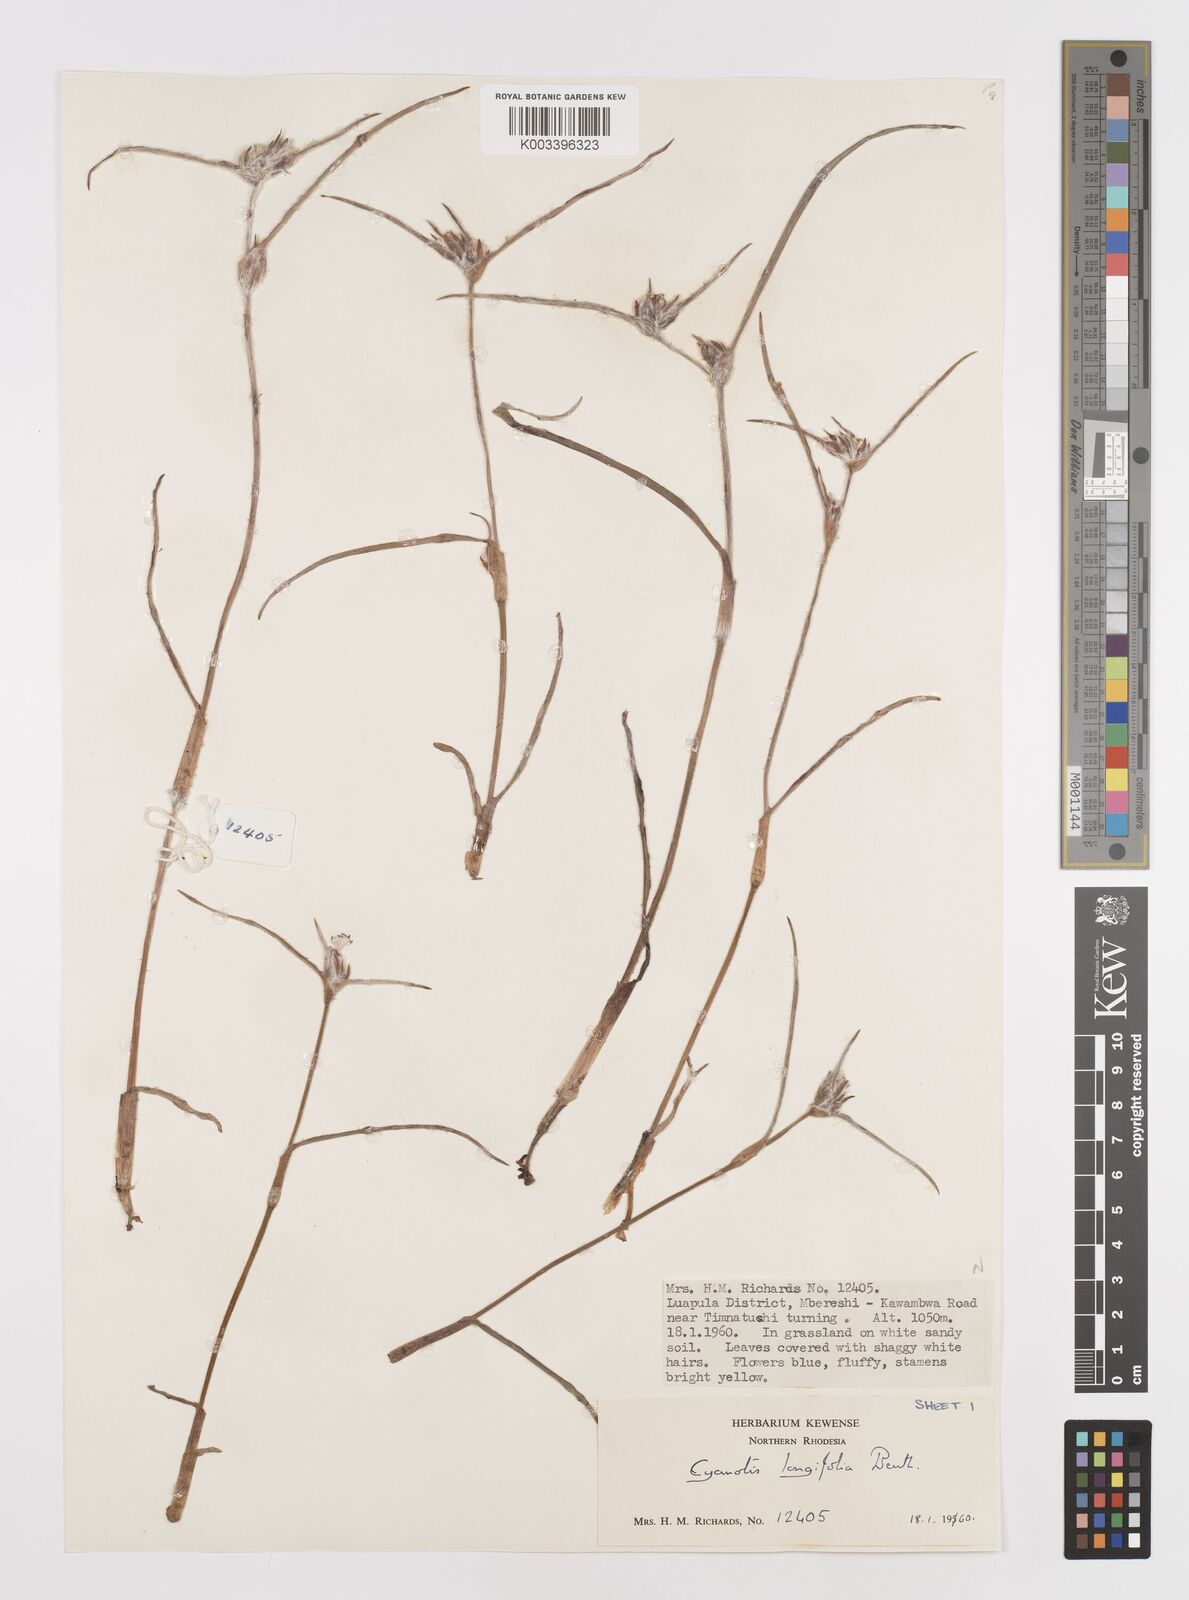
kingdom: Plantae
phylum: Tracheophyta
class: Liliopsida
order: Commelinales
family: Commelinaceae
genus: Cyanotis
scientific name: Cyanotis longifolia
